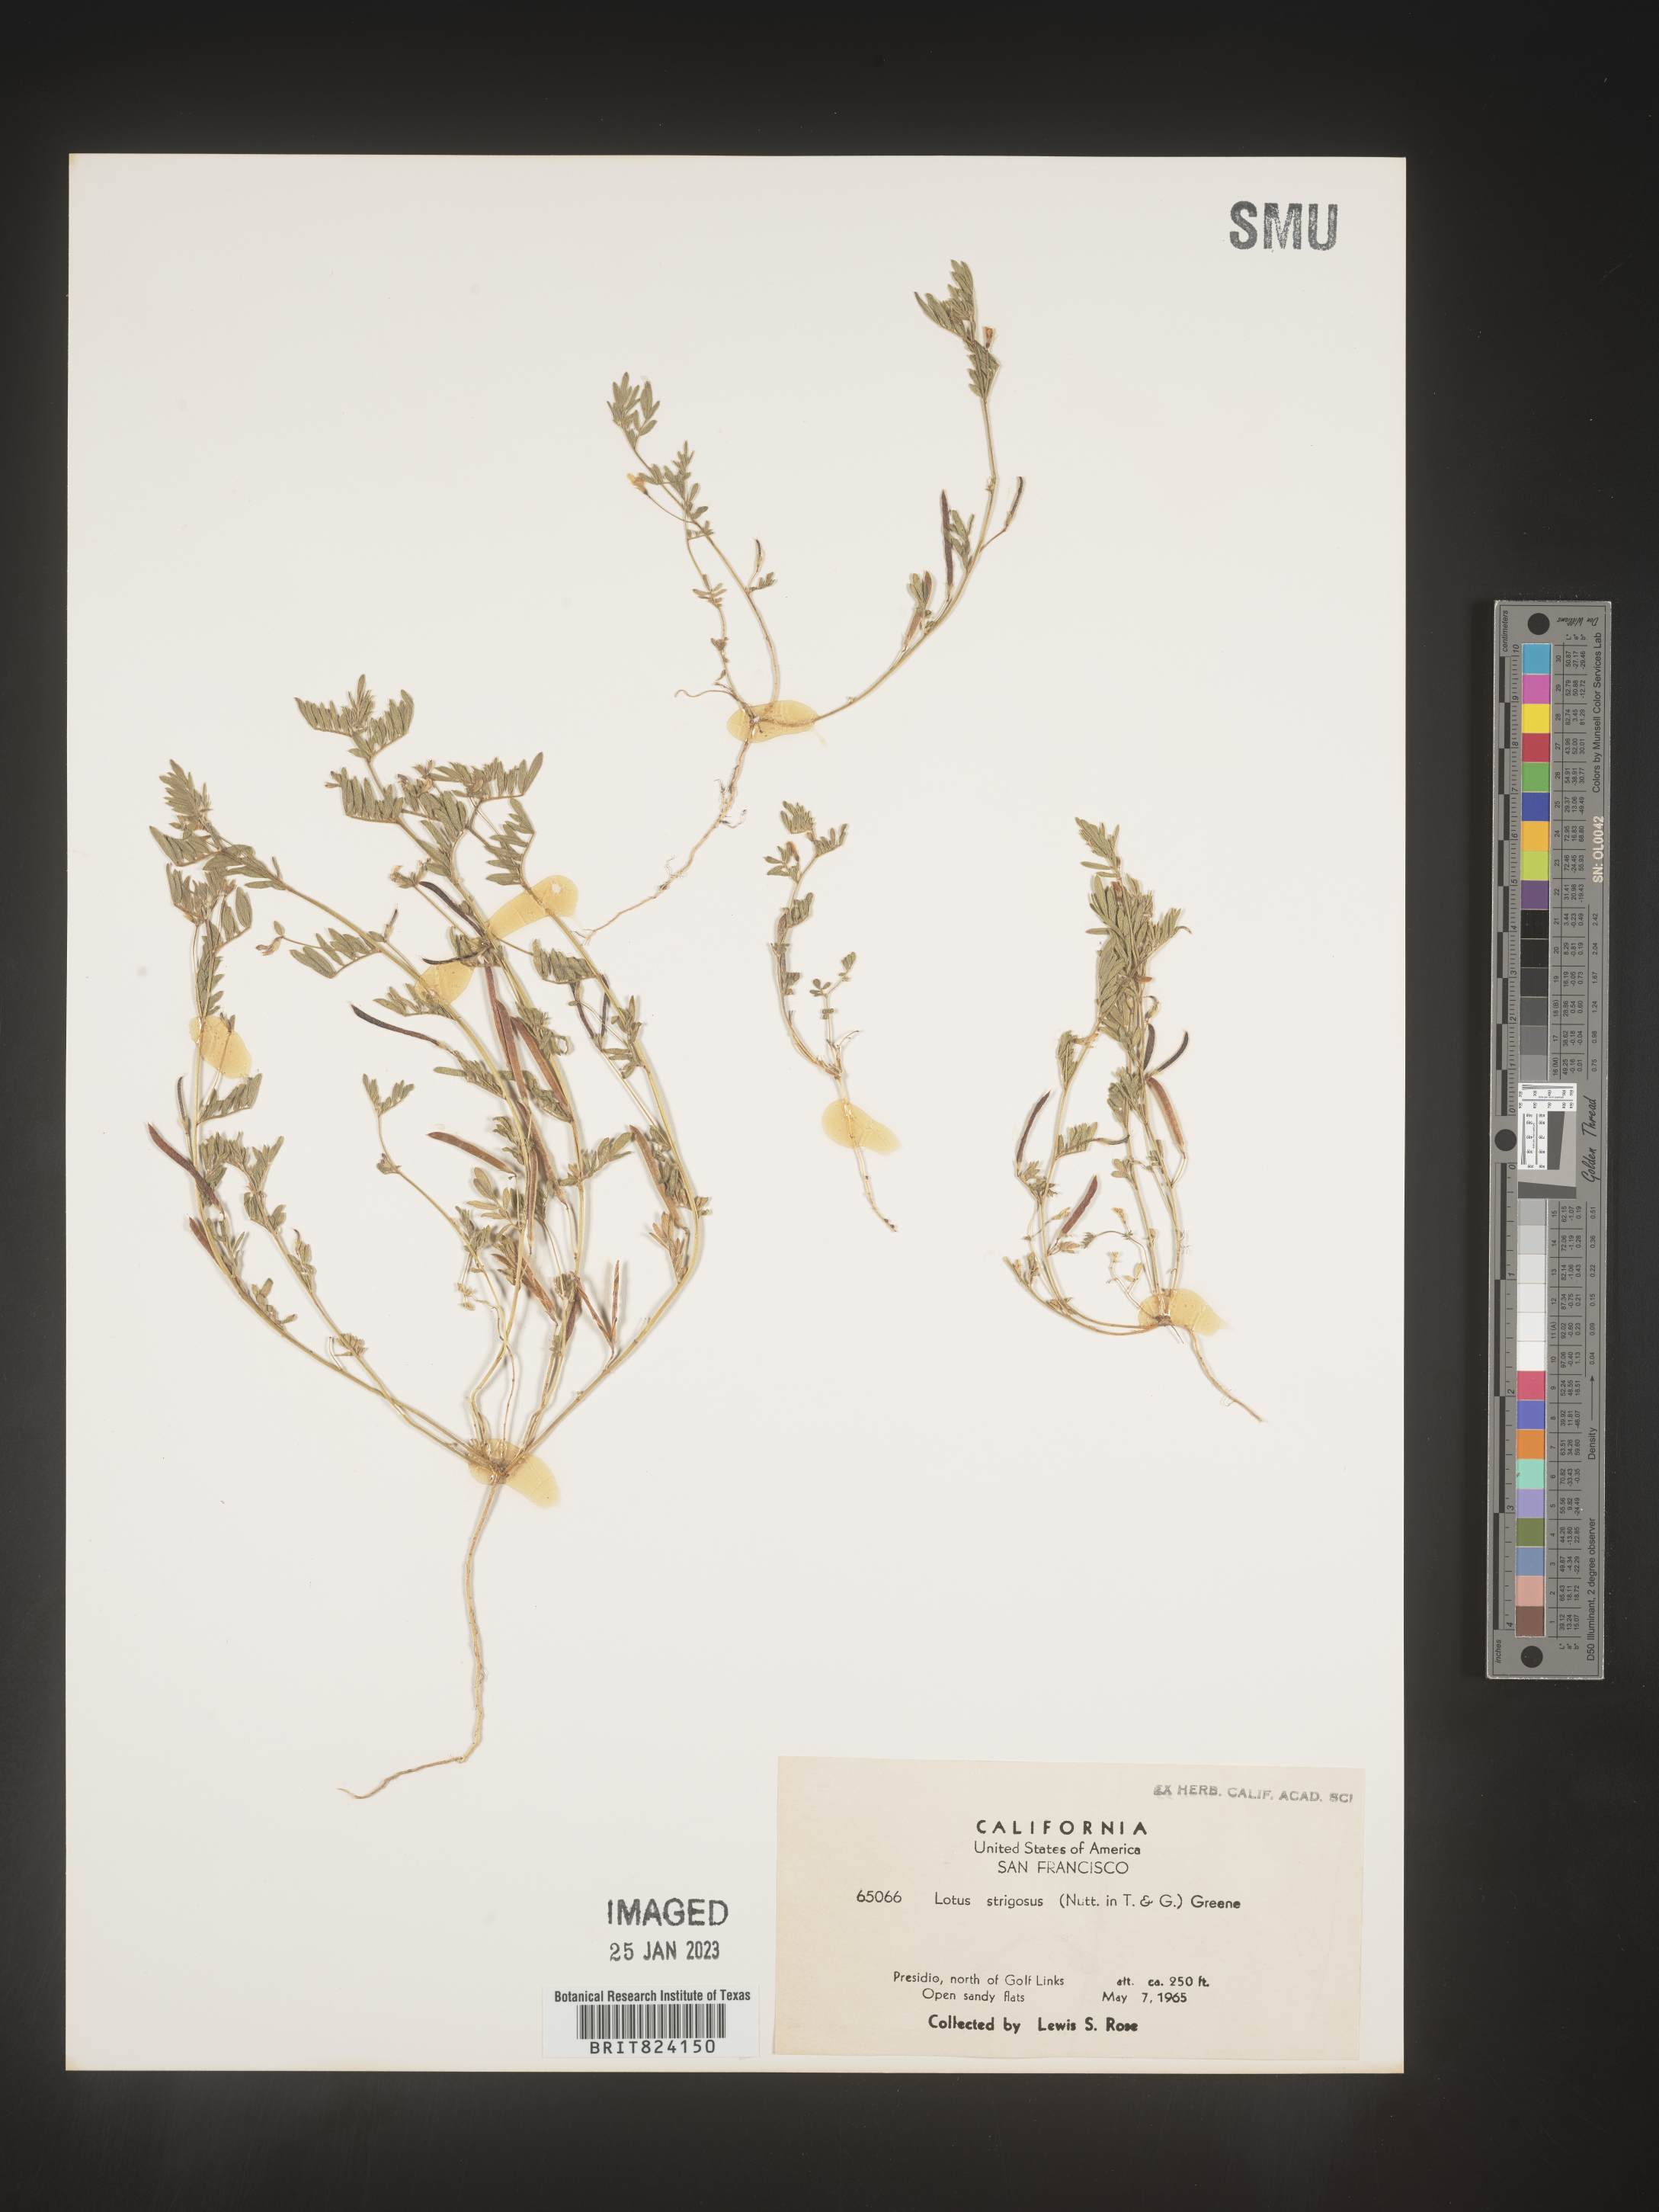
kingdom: Plantae
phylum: Tracheophyta
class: Magnoliopsida
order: Fabales
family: Fabaceae
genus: Lotus
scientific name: Lotus
